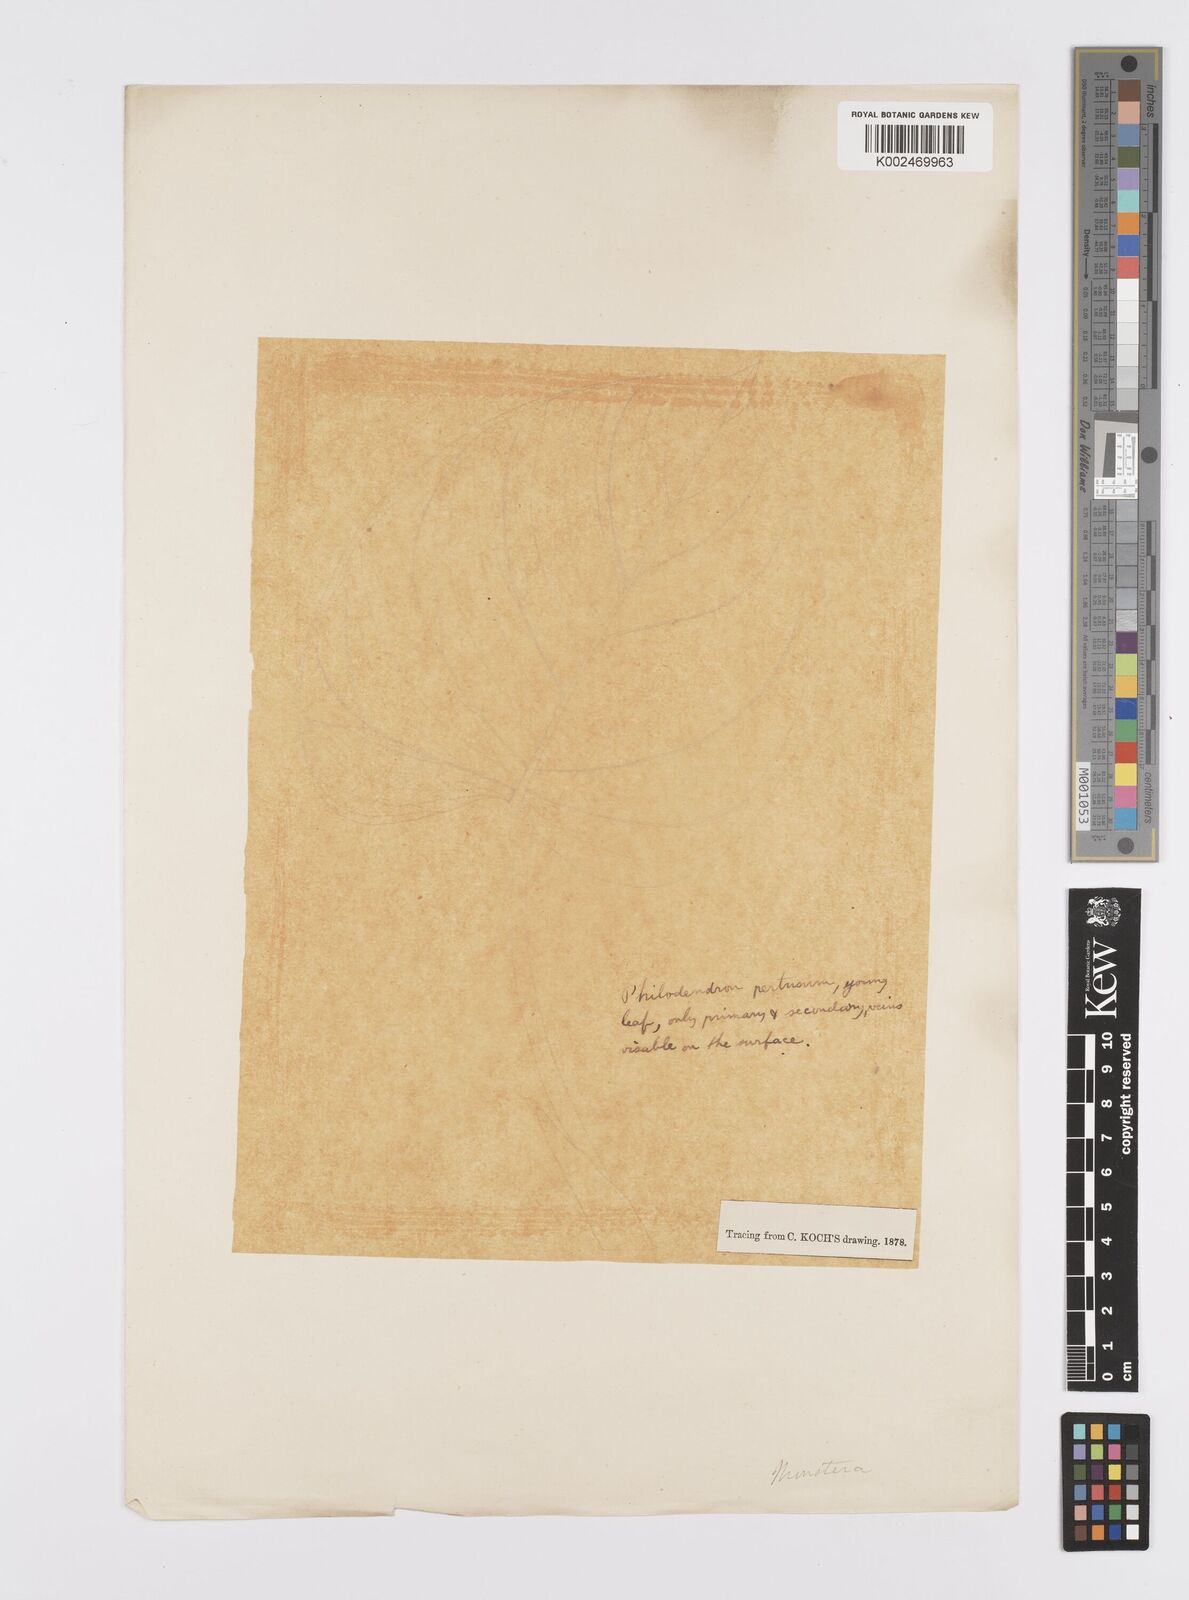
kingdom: Plantae
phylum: Tracheophyta
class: Liliopsida
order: Alismatales
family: Araceae
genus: Monstera
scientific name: Monstera adansonii
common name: Tarovine
